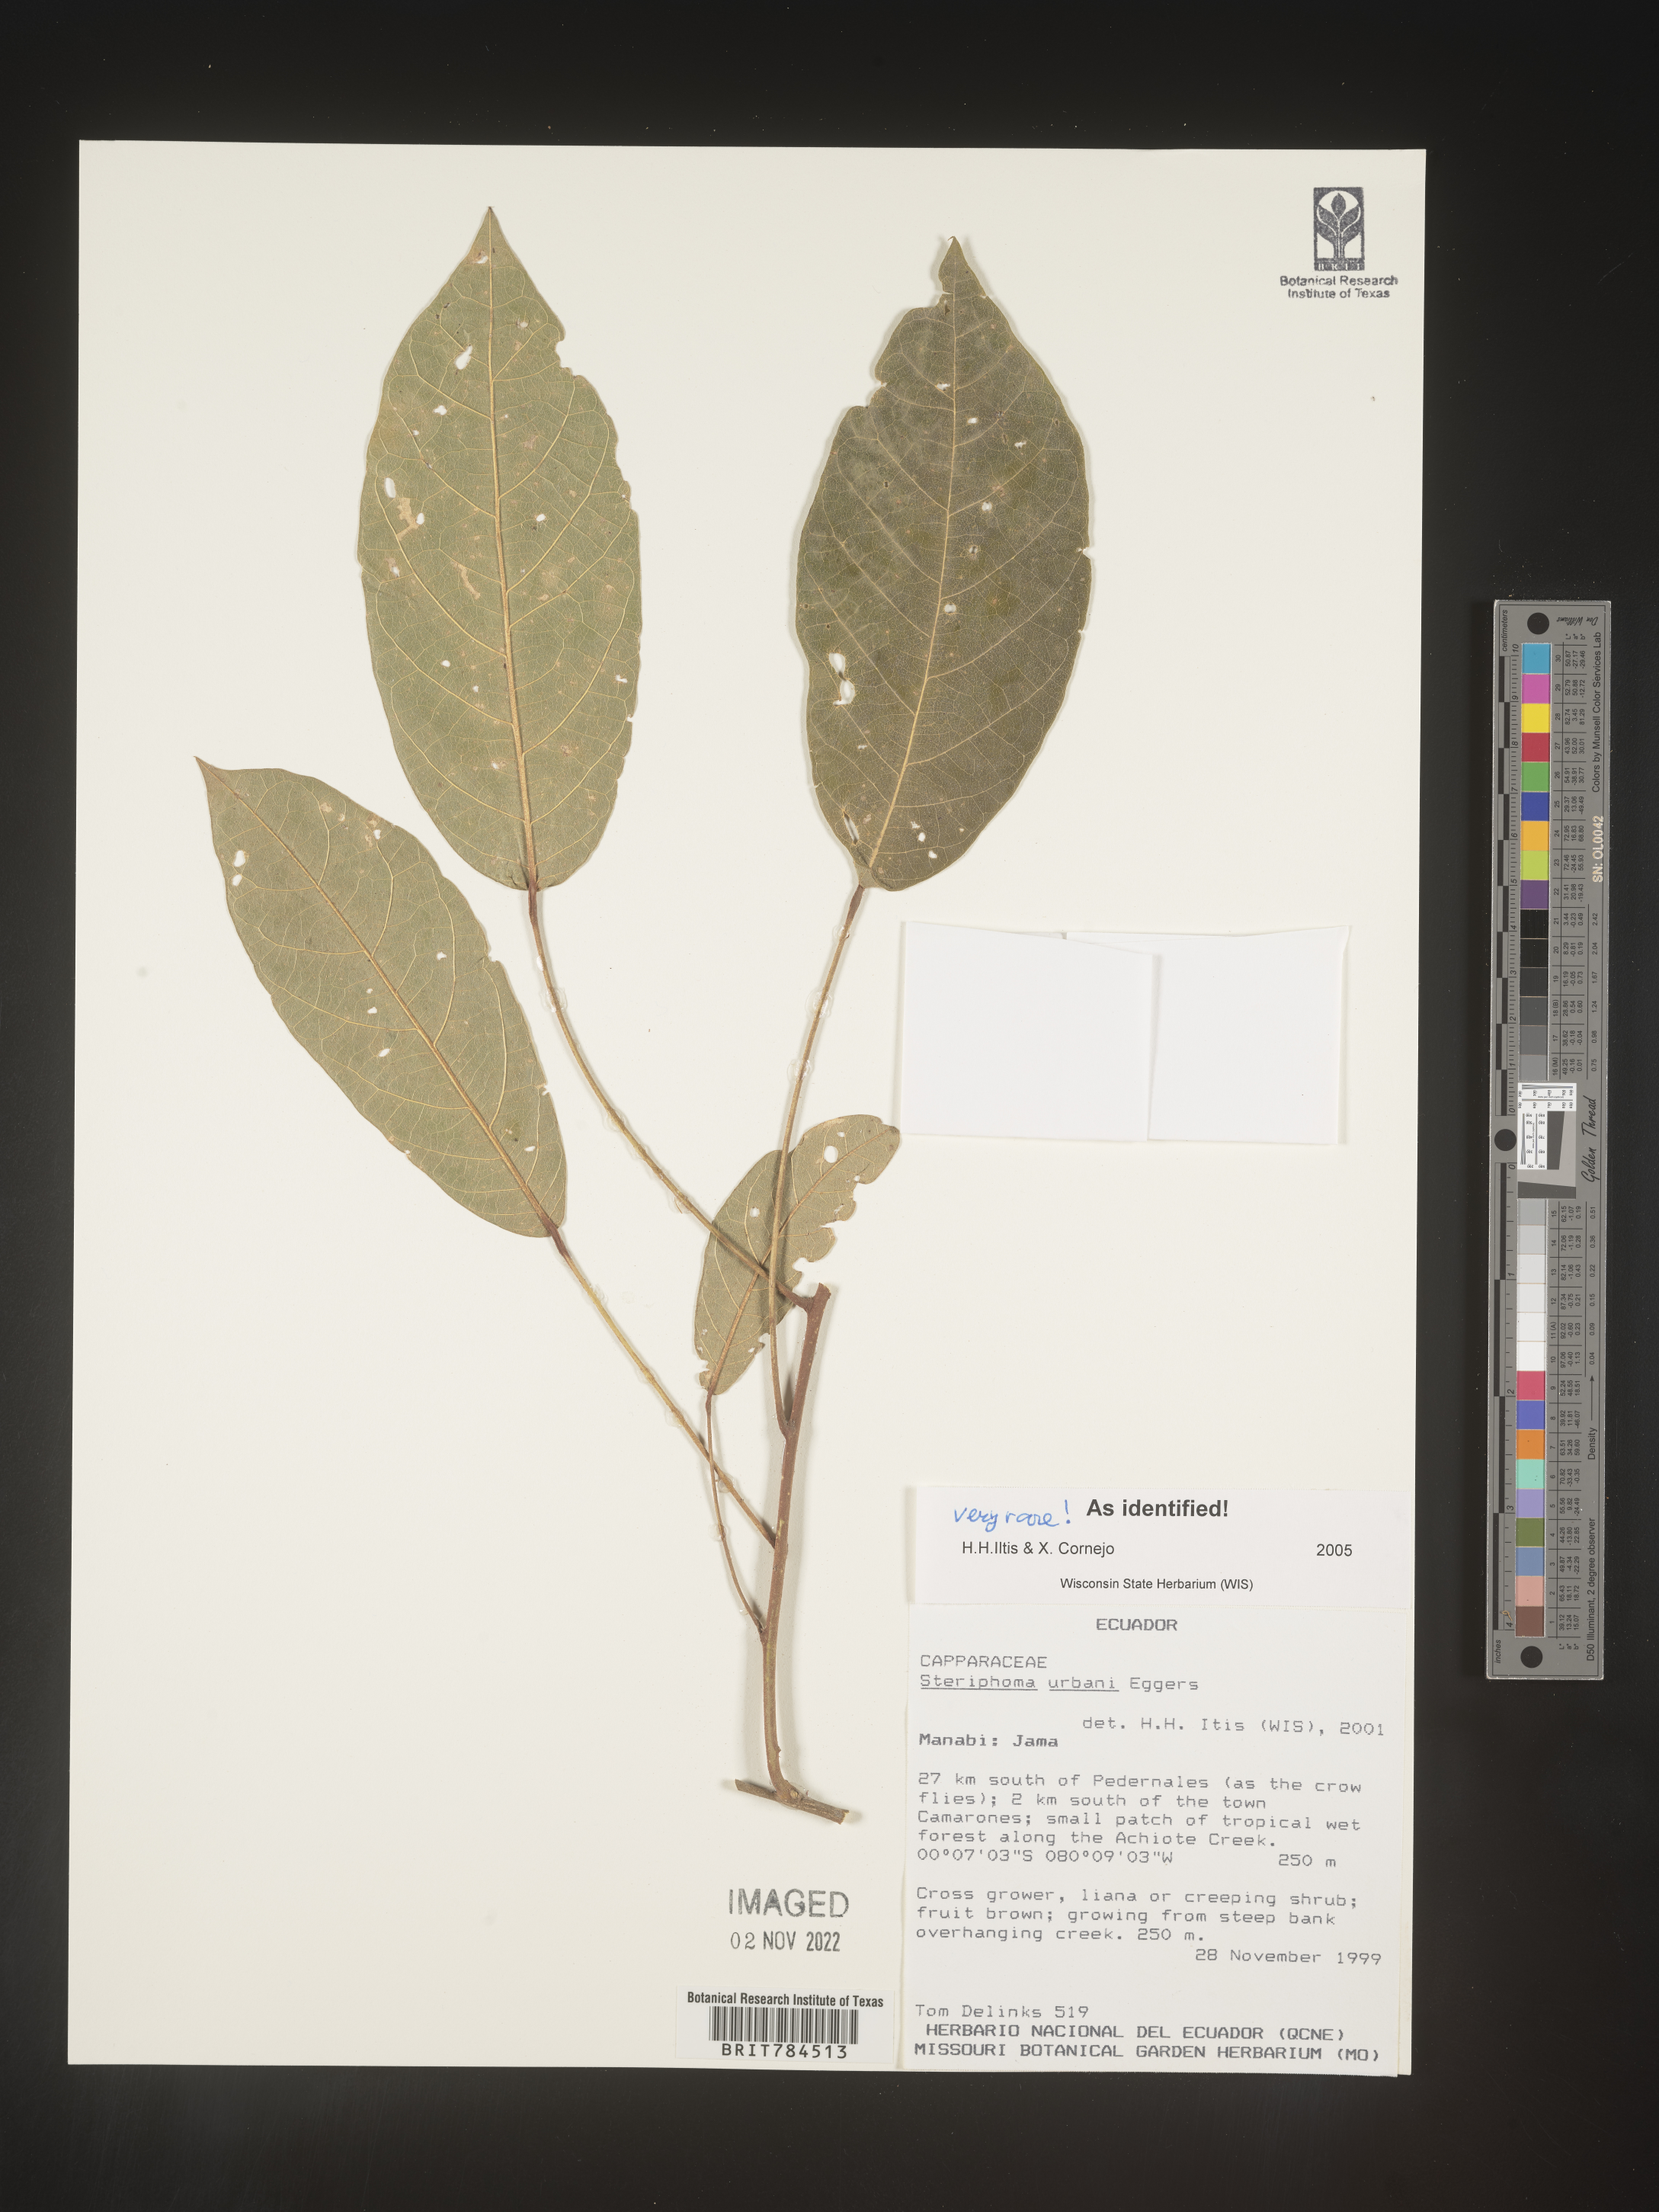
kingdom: Plantae
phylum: Tracheophyta
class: Magnoliopsida
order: Brassicales
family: Capparaceae
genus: Steriphoma
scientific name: Steriphoma
